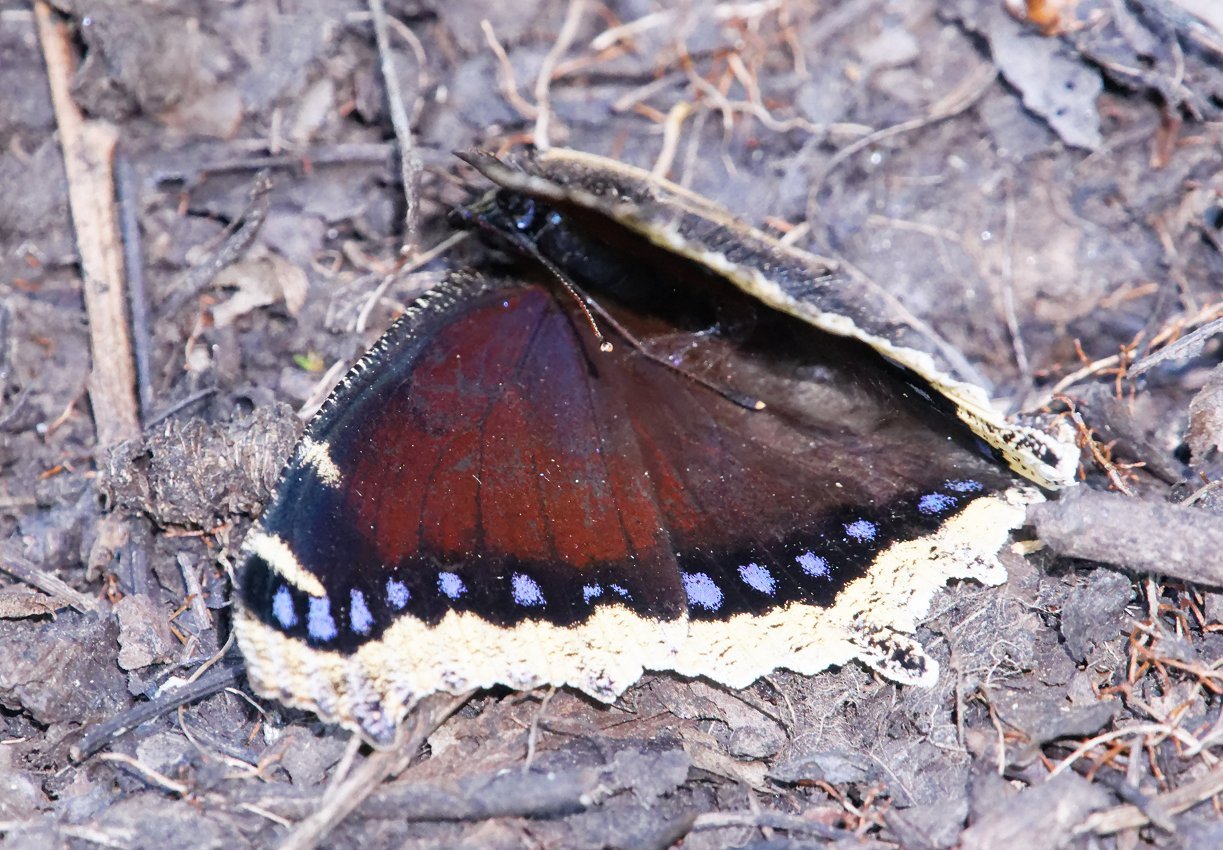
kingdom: Animalia
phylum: Arthropoda
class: Insecta
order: Lepidoptera
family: Nymphalidae
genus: Nymphalis
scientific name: Nymphalis antiopa
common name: Mourning Cloak
